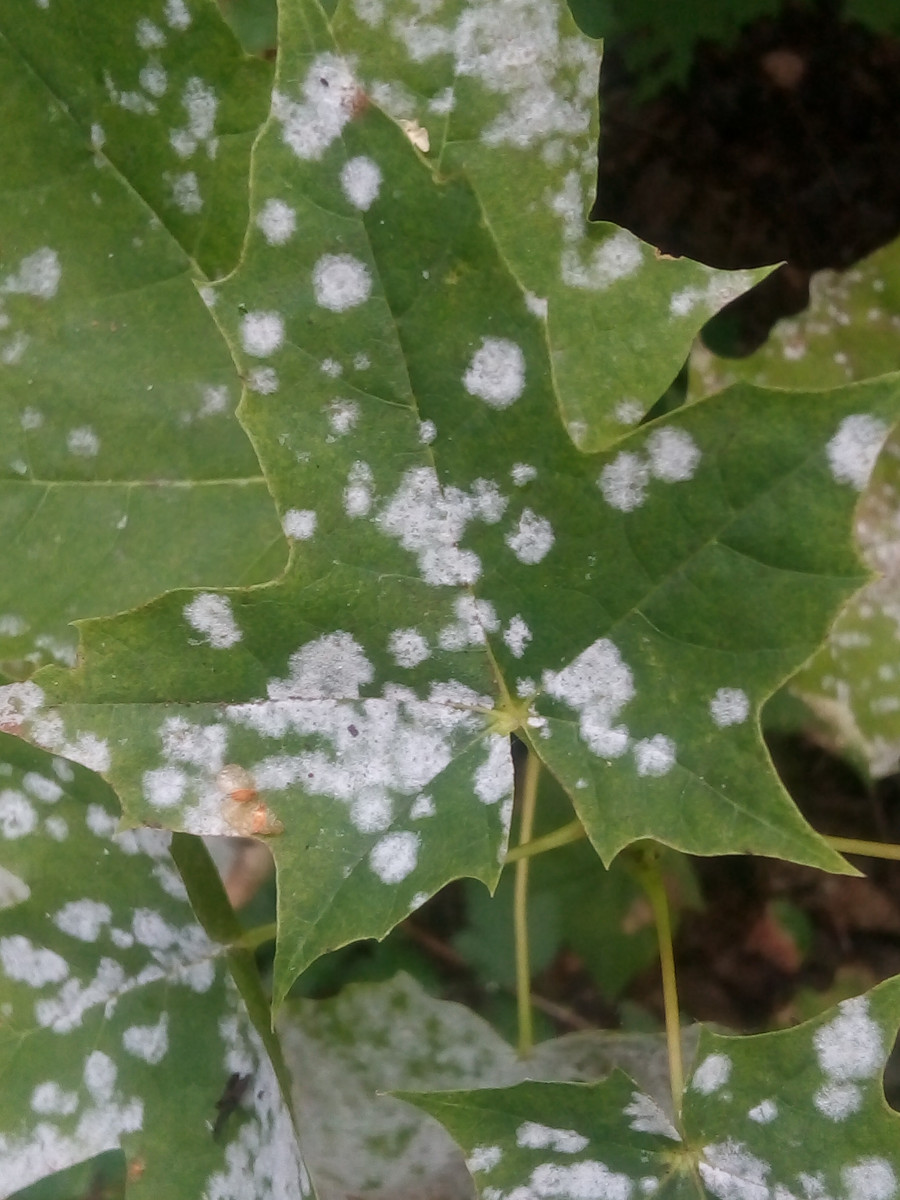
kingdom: Fungi
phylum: Ascomycota
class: Leotiomycetes
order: Helotiales
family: Erysiphaceae
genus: Sawadaea
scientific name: Sawadaea tulasnei
